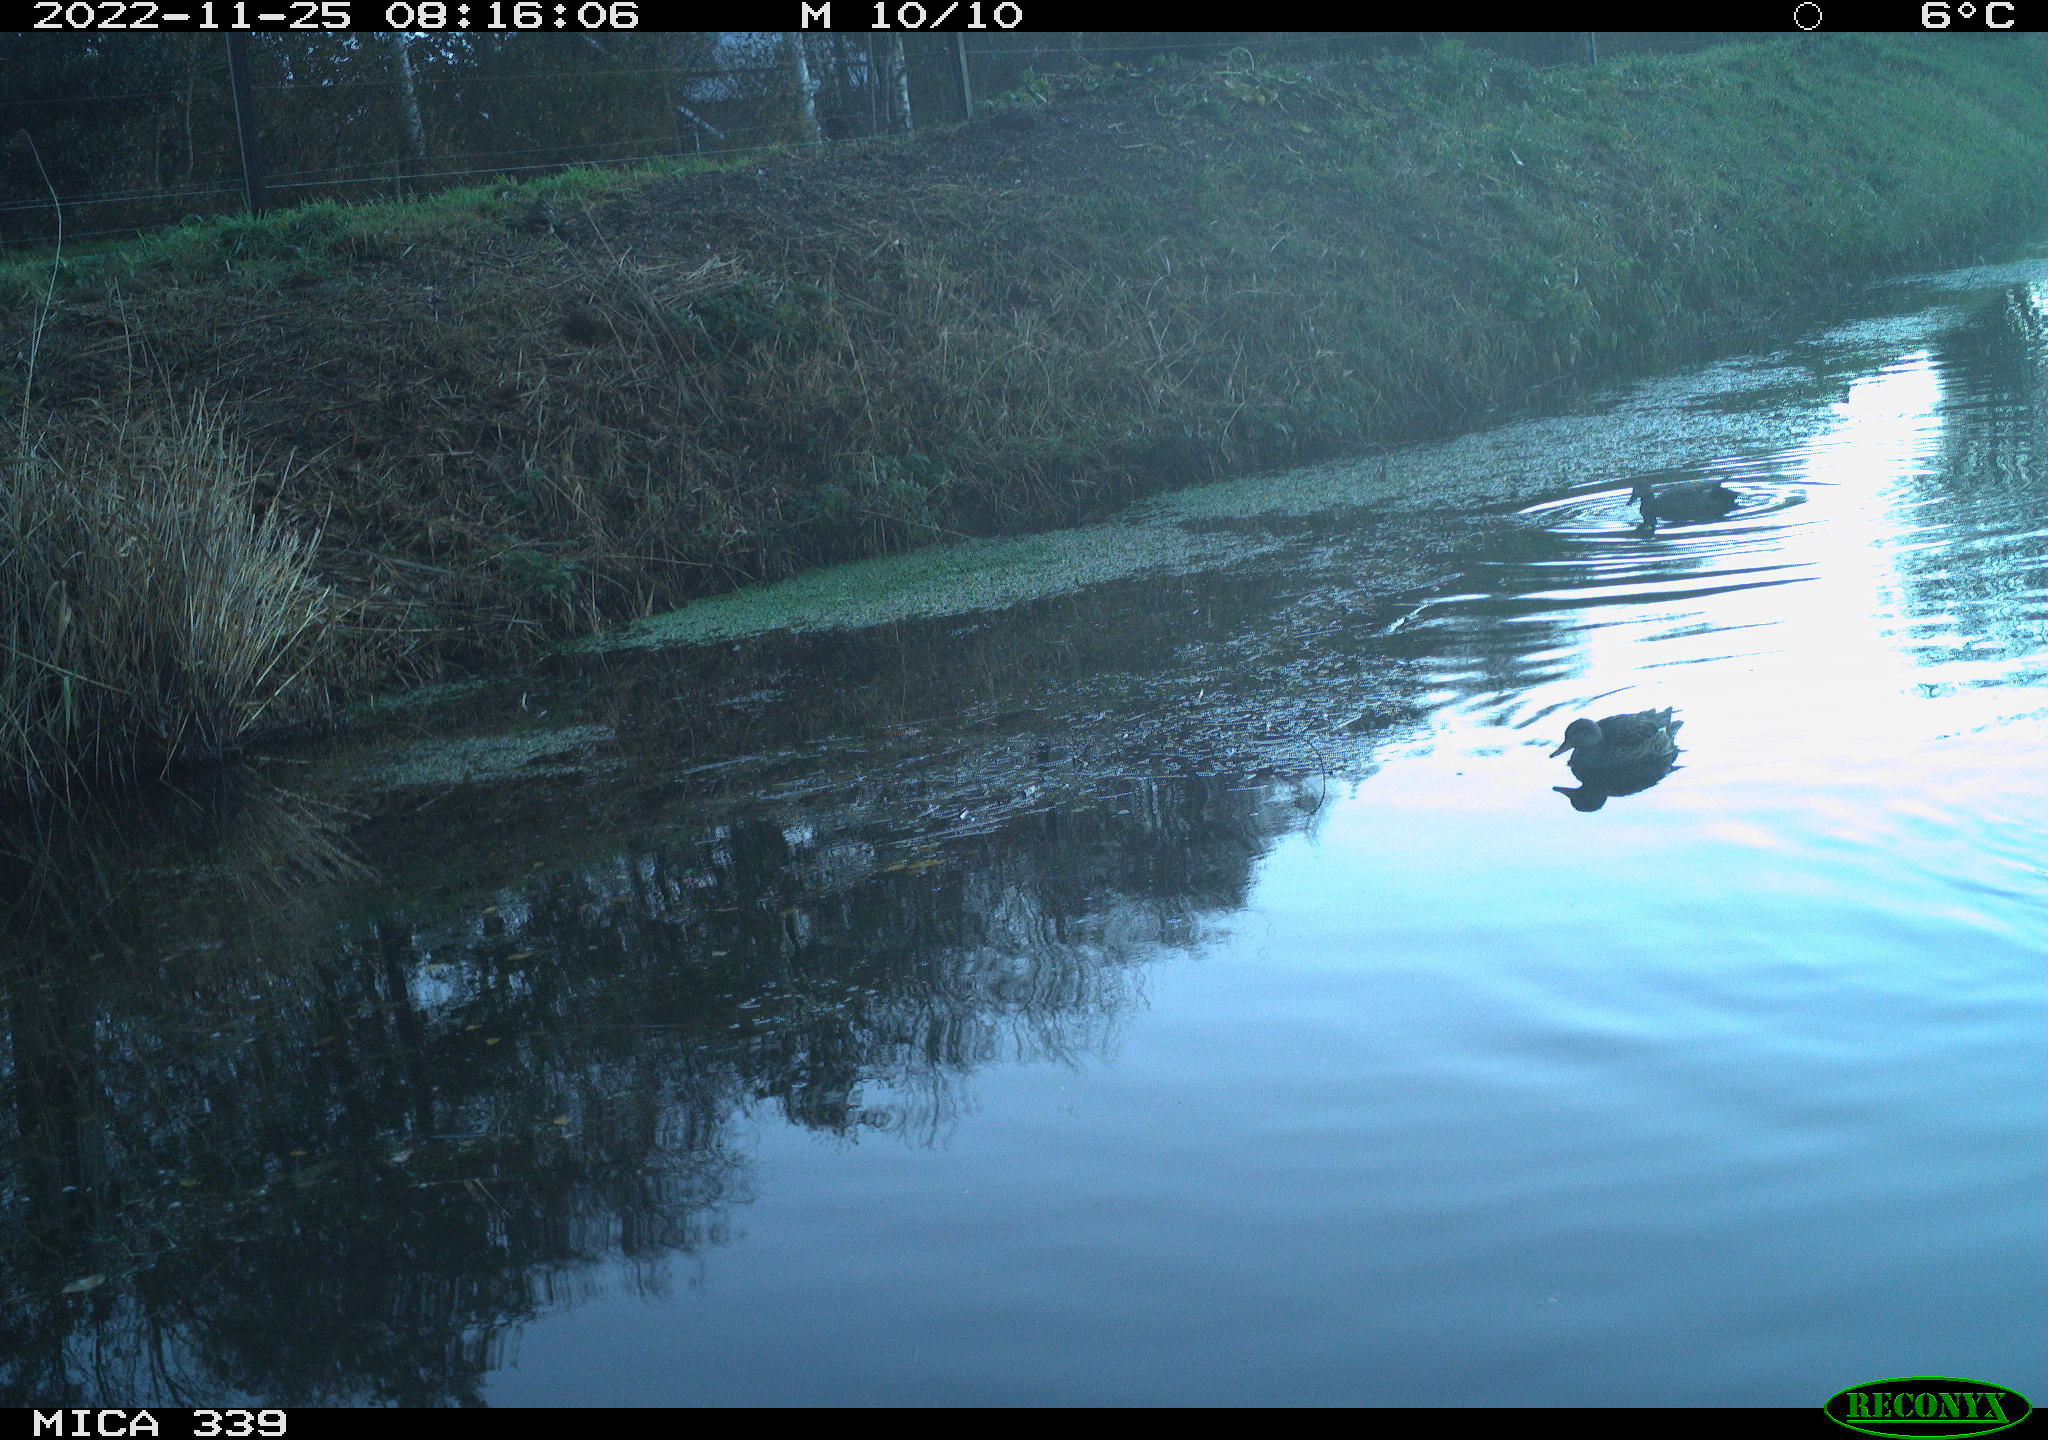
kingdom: Animalia
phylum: Chordata
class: Aves
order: Anseriformes
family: Anatidae
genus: Anas
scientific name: Anas platyrhynchos
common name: Mallard
